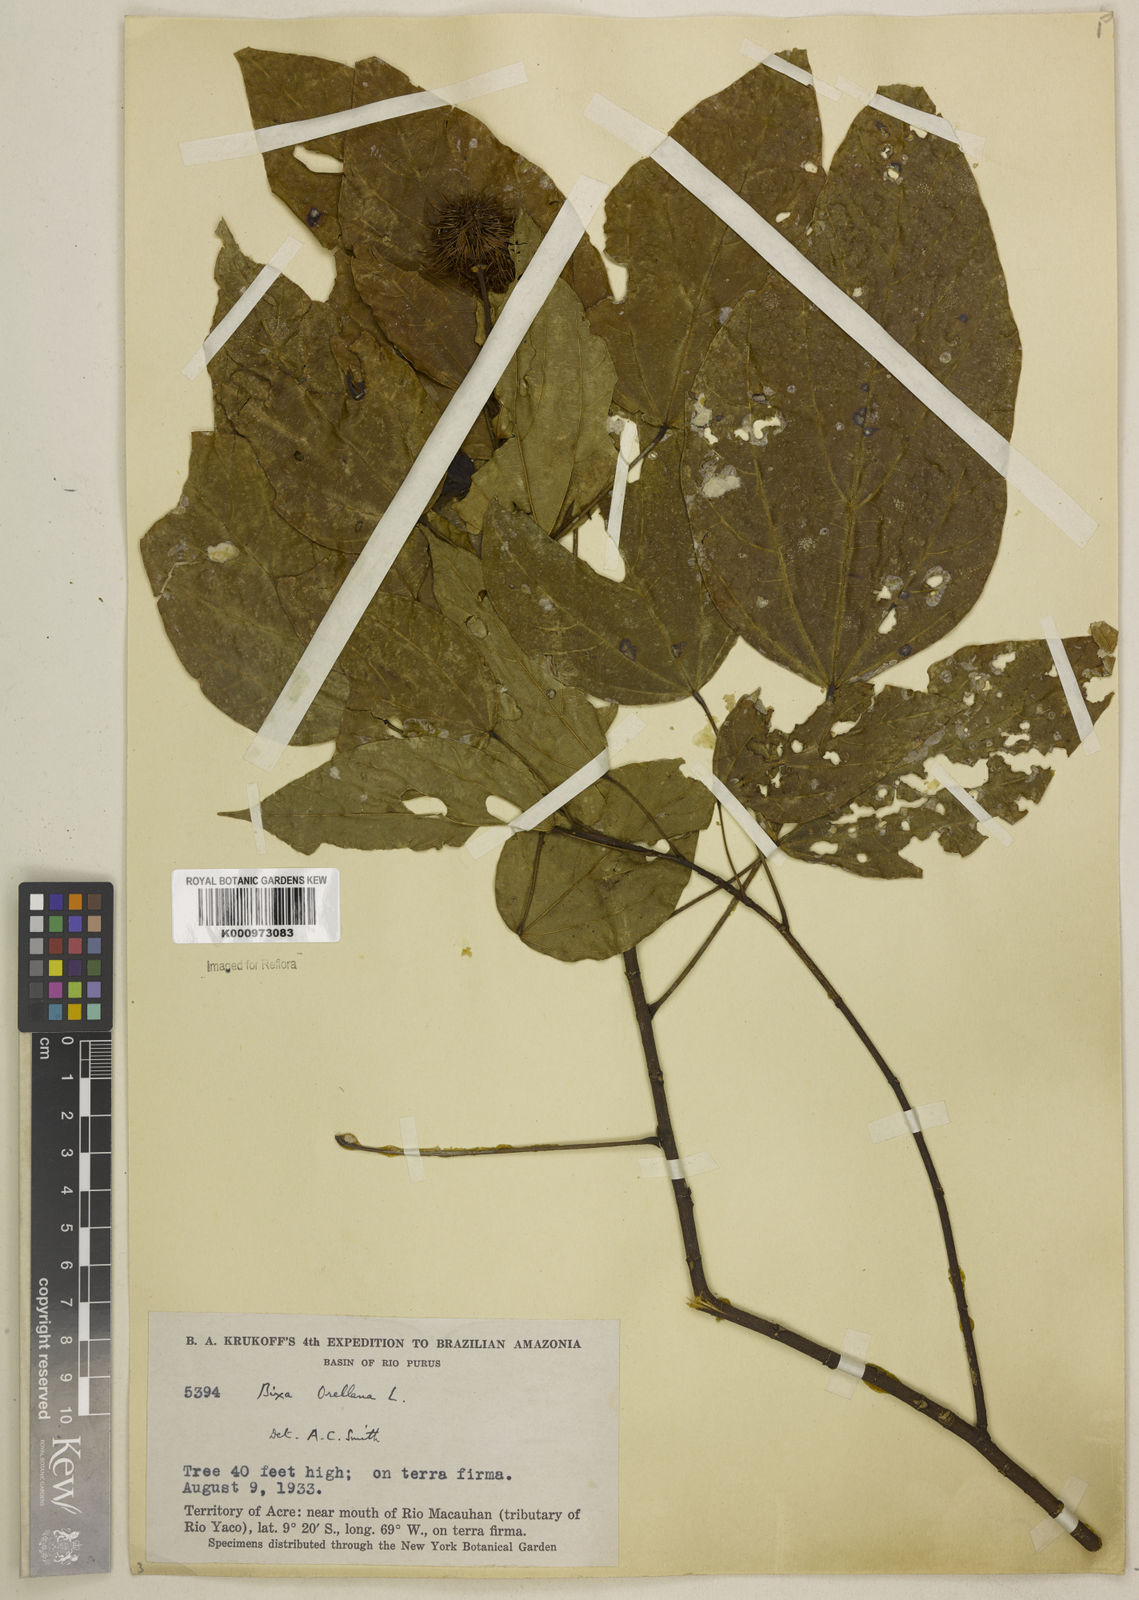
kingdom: Plantae
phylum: Tracheophyta
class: Magnoliopsida
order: Malvales
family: Bixaceae
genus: Bixa
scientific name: Bixa excelsa
